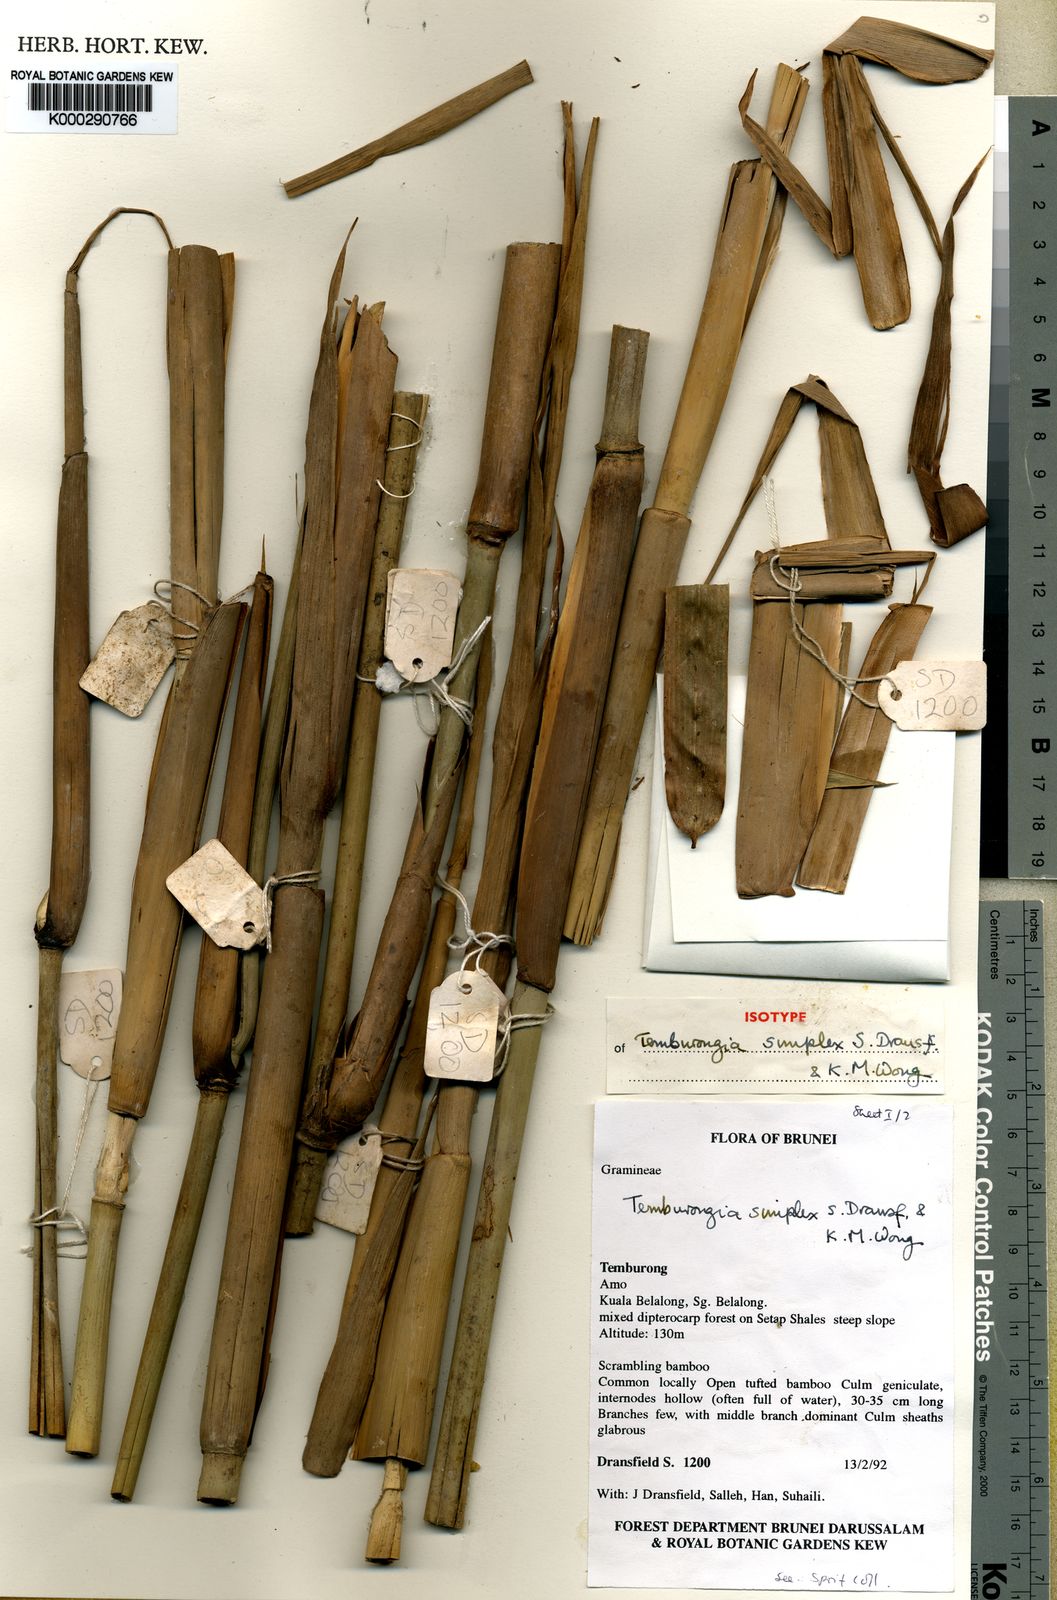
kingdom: Plantae
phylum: Tracheophyta
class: Liliopsida
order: Poales
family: Poaceae
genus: Temburongia
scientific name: Temburongia simplex
